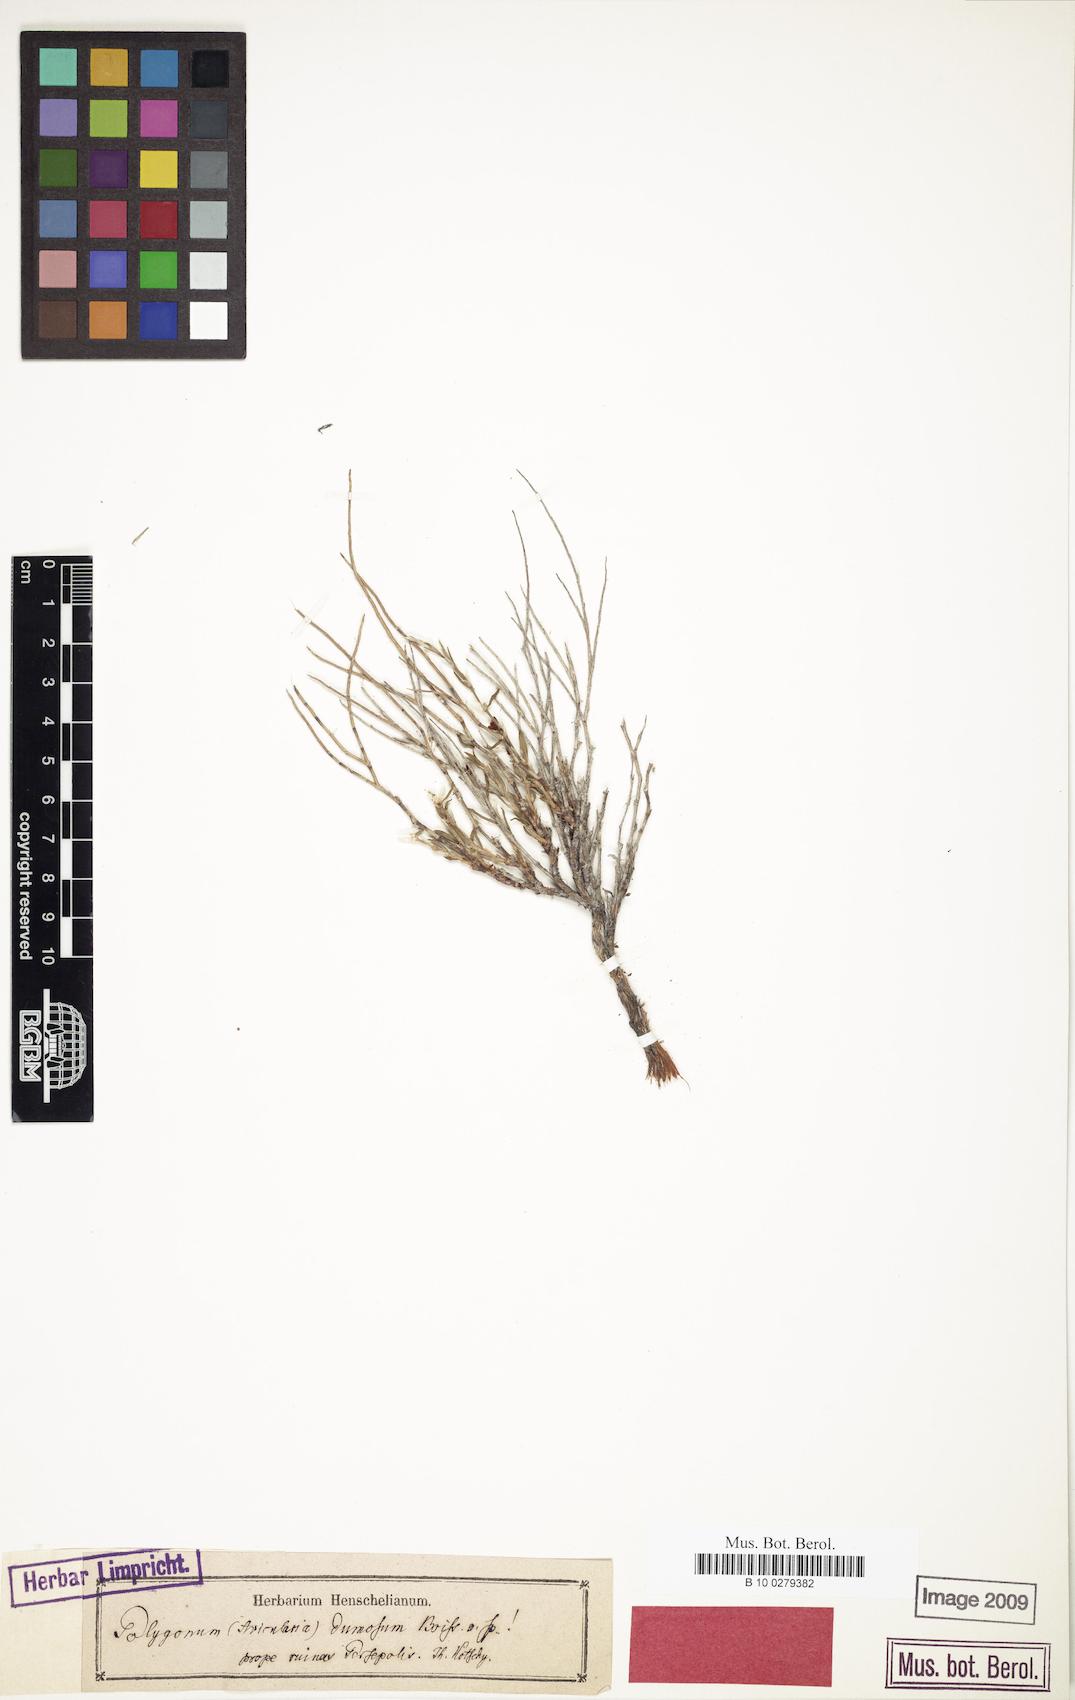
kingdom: Plantae
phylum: Tracheophyta
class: Magnoliopsida
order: Caryophyllales
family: Polygonaceae
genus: Atraphaxis
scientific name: Atraphaxis dumosa
